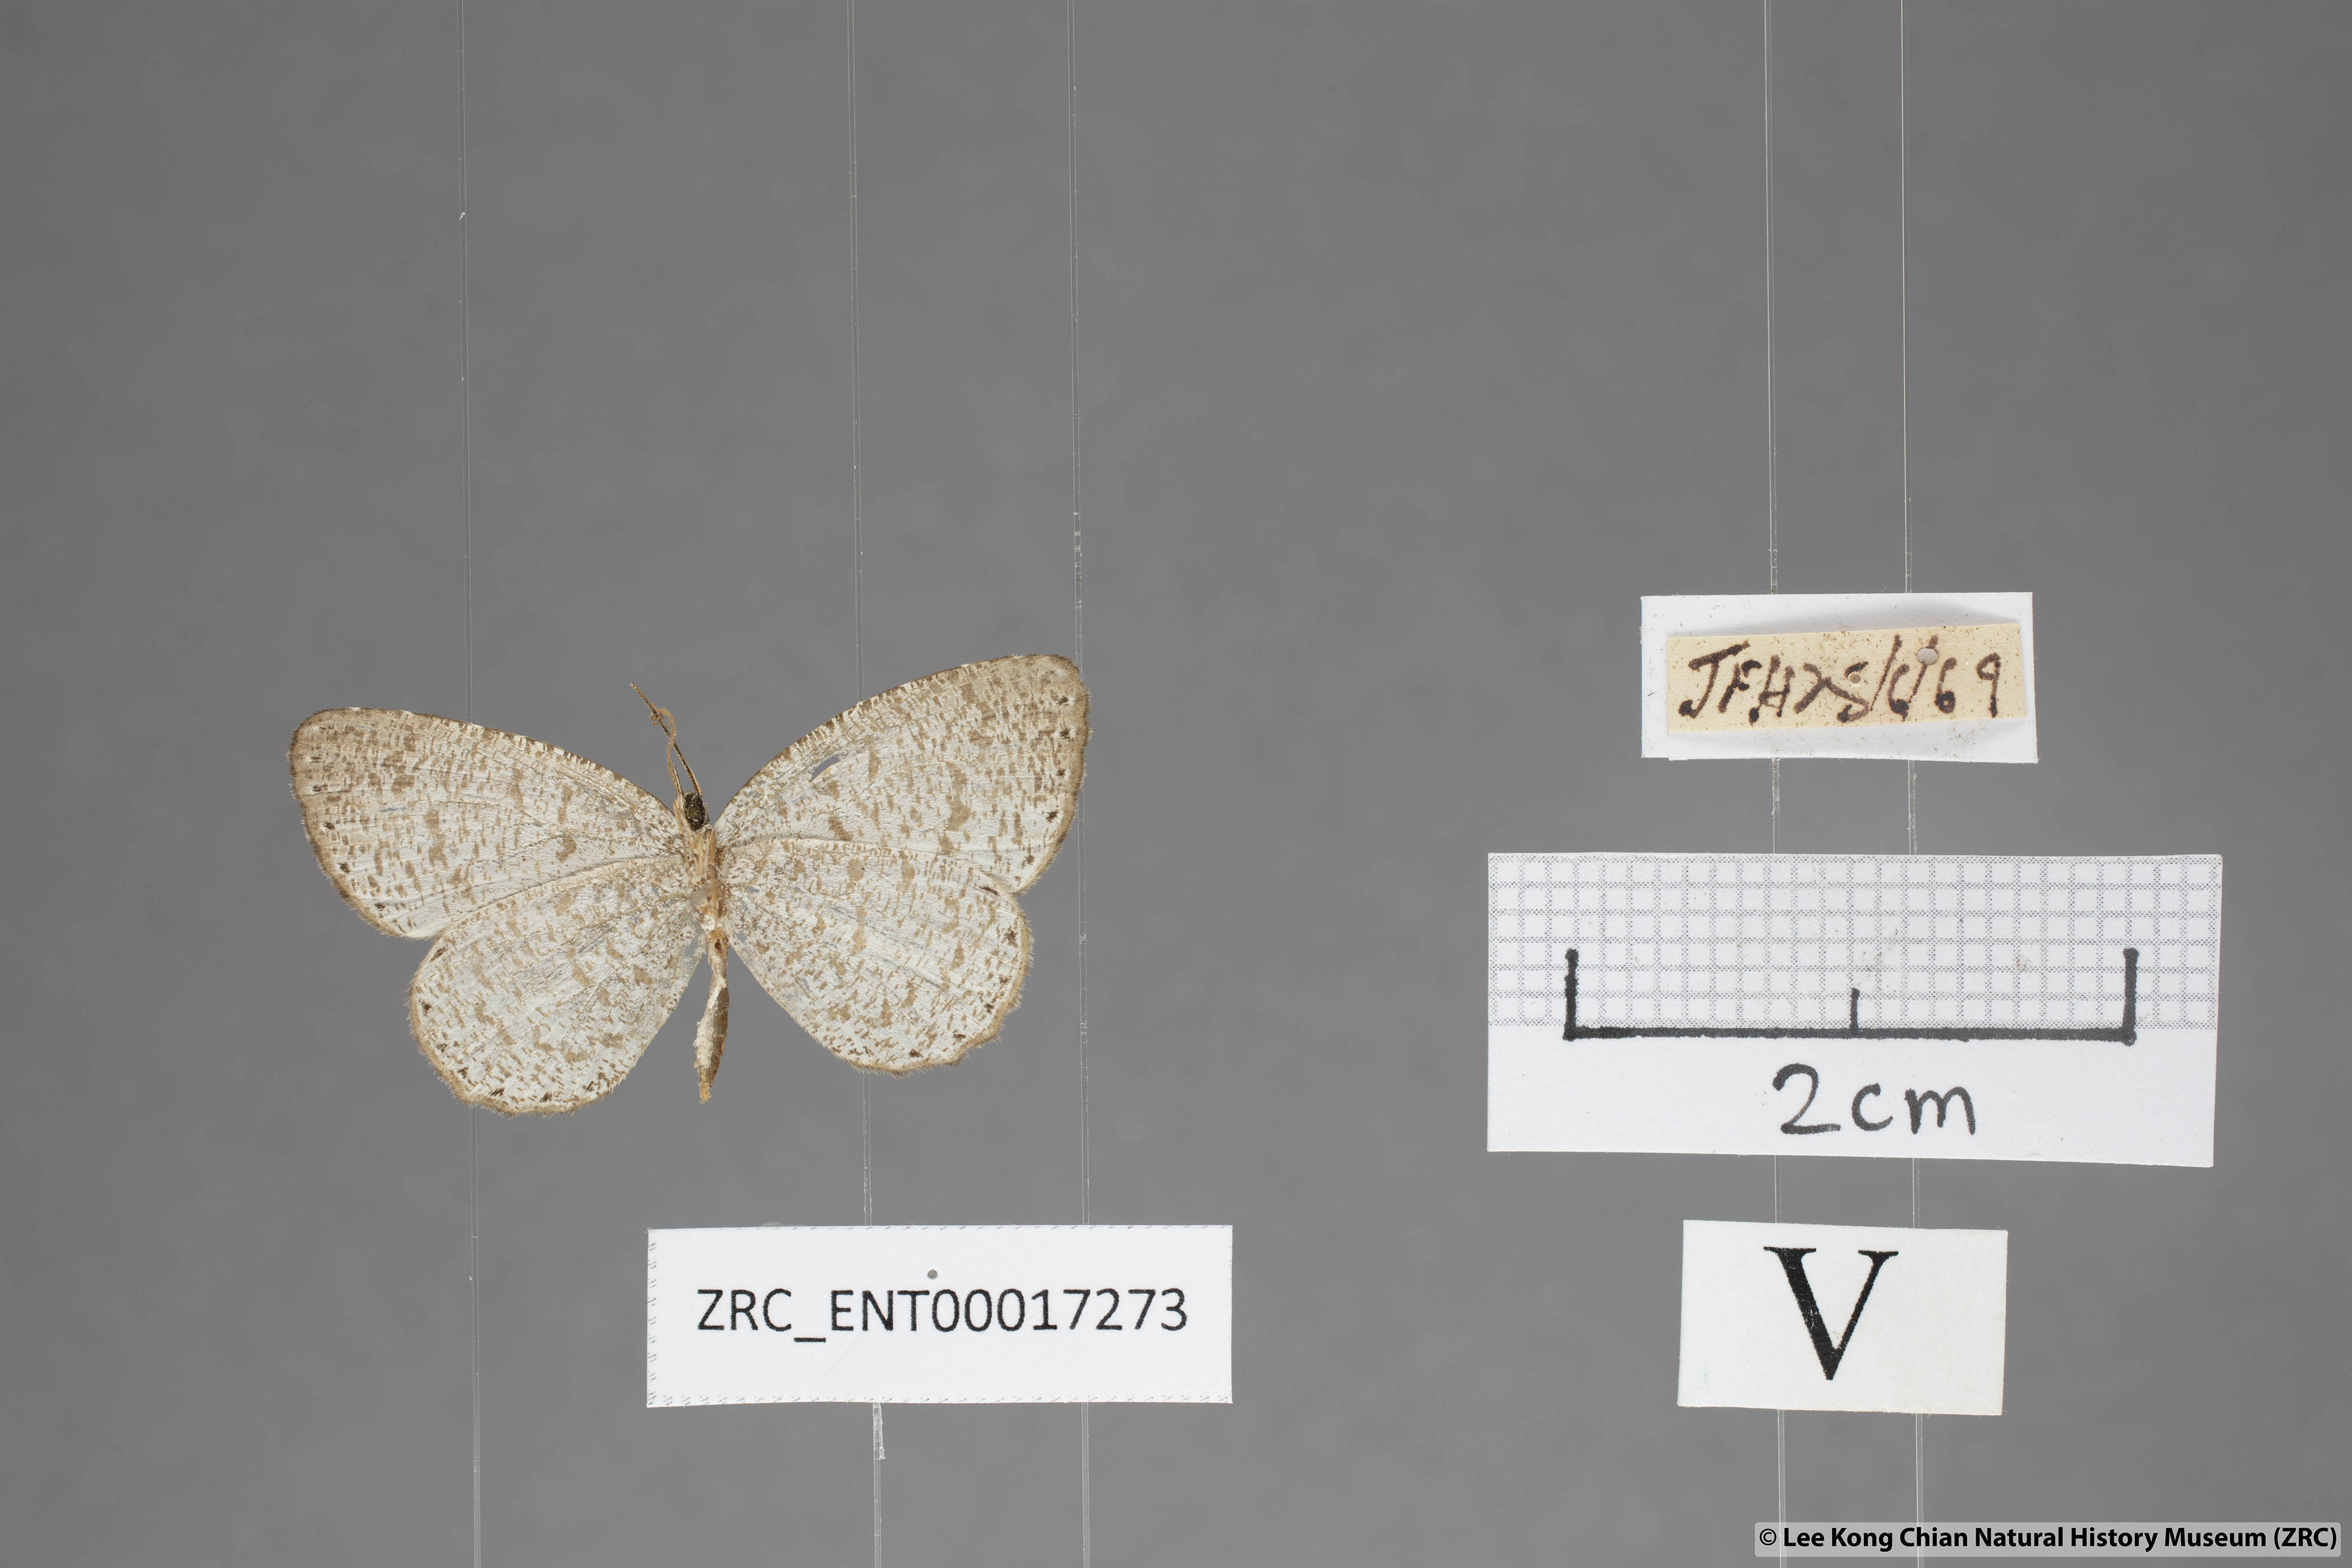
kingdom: Animalia
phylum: Arthropoda
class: Insecta
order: Lepidoptera
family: Lycaenidae
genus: Allotinus
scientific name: Allotinus portunus
